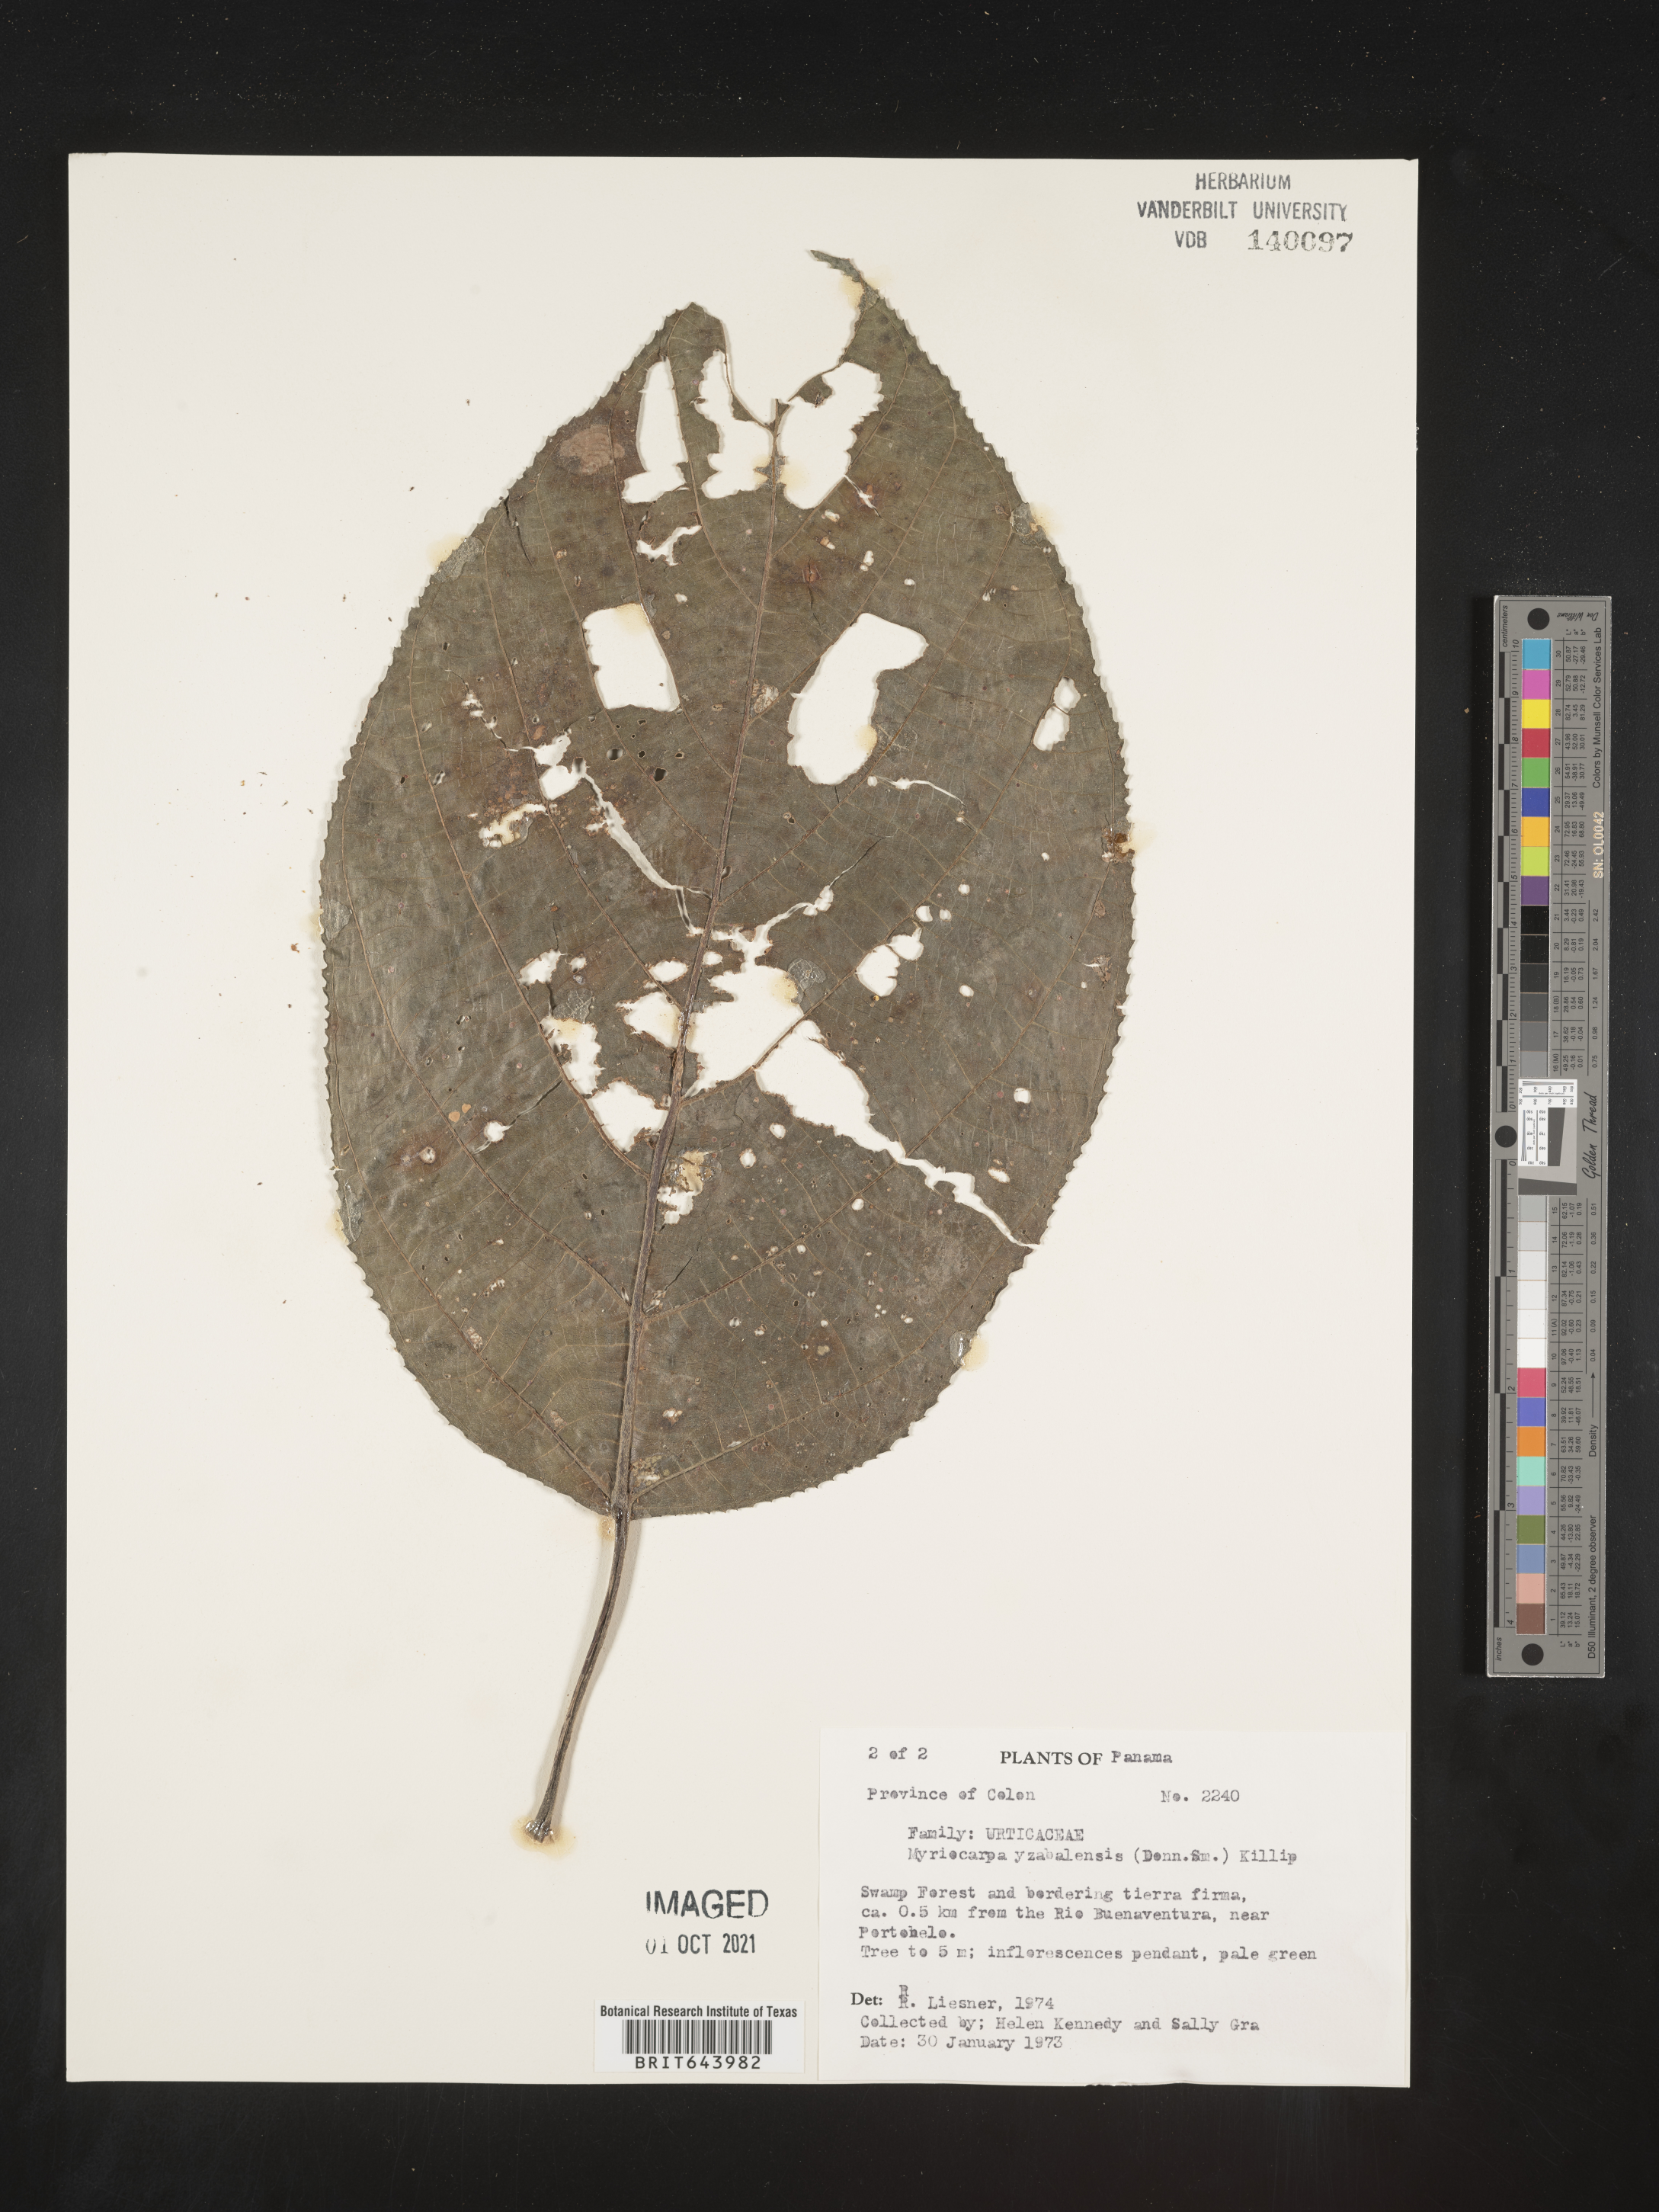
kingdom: Plantae
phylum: Tracheophyta
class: Magnoliopsida
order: Rosales
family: Urticaceae
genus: Myriocarpa
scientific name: Myriocarpa
